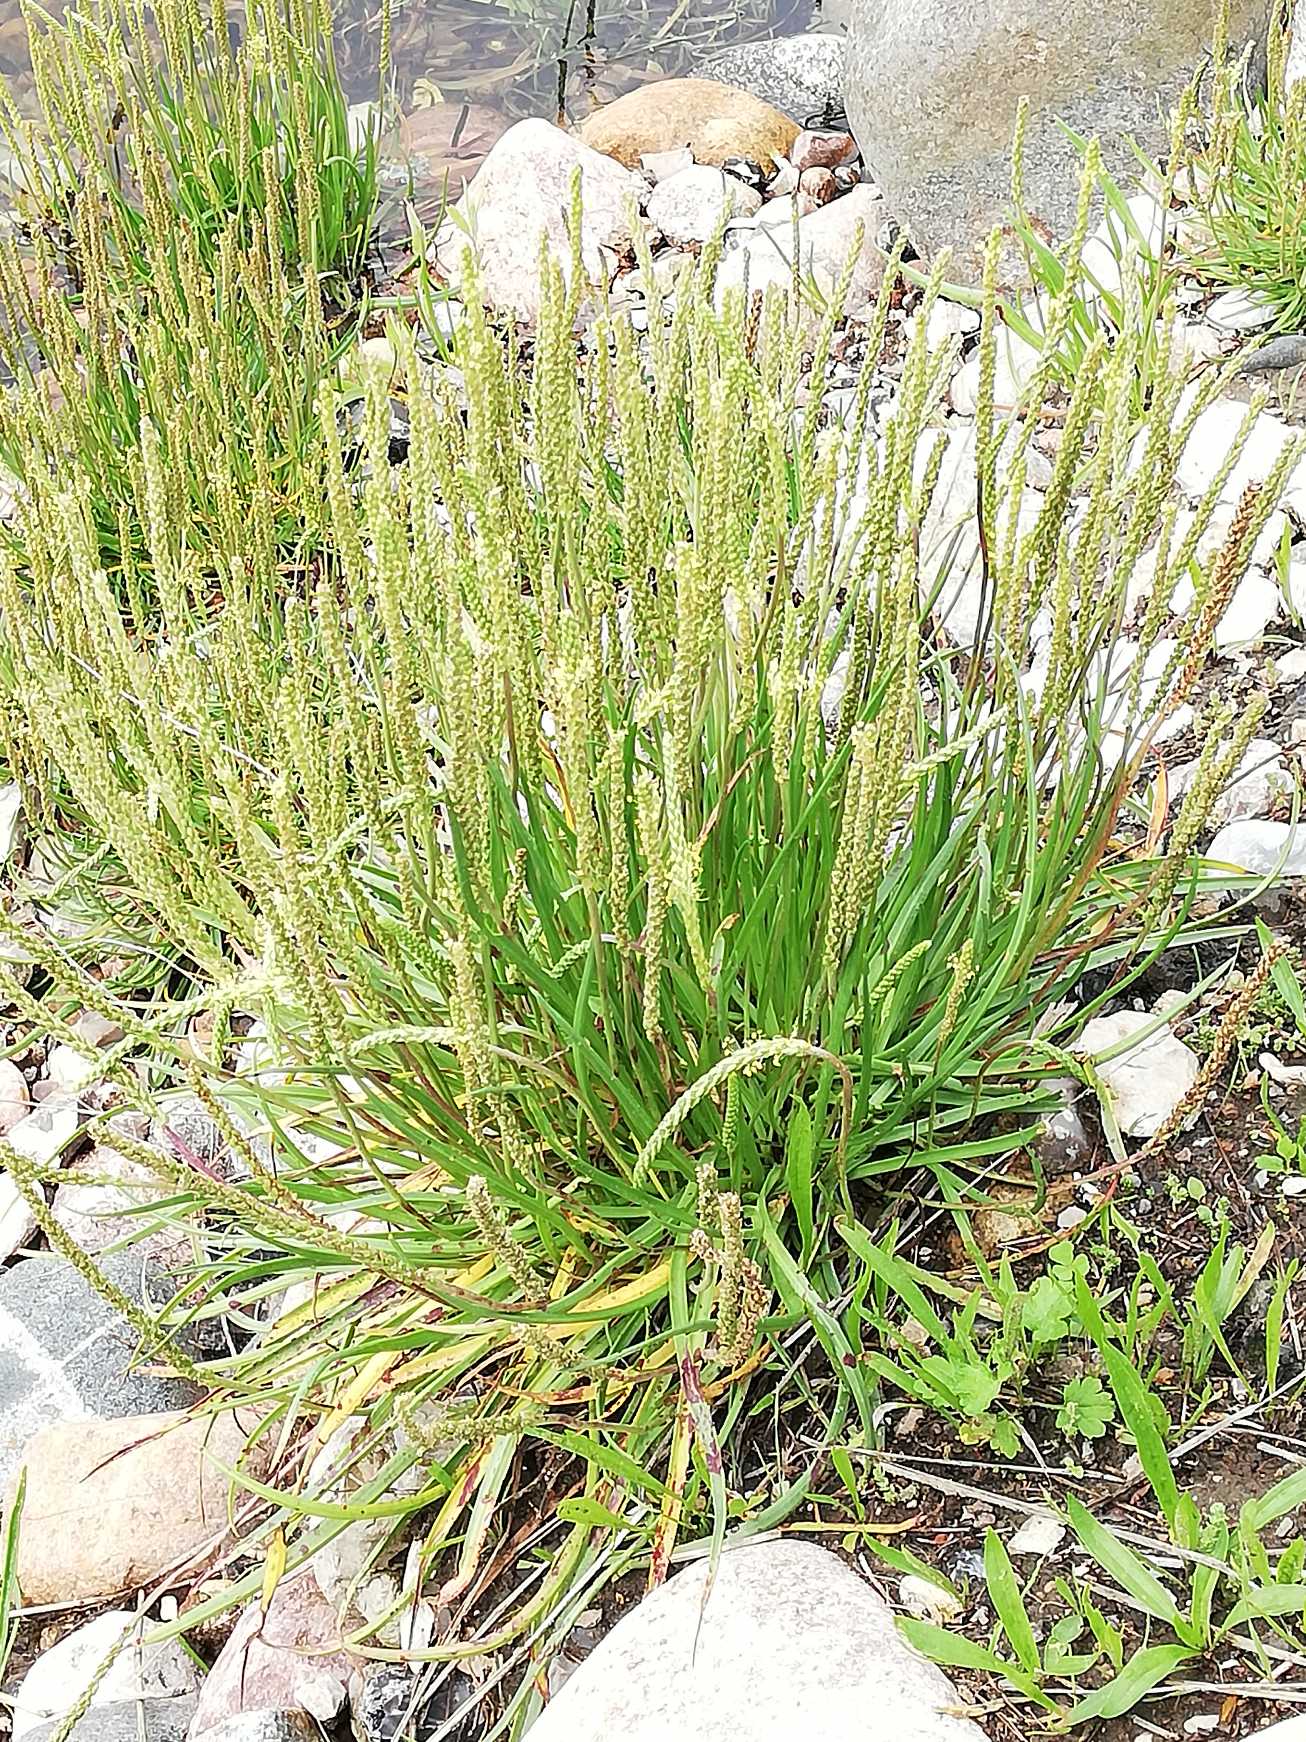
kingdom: Plantae
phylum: Tracheophyta
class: Magnoliopsida
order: Lamiales
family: Plantaginaceae
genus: Plantago
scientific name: Plantago maritima
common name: Strand-vejbred
